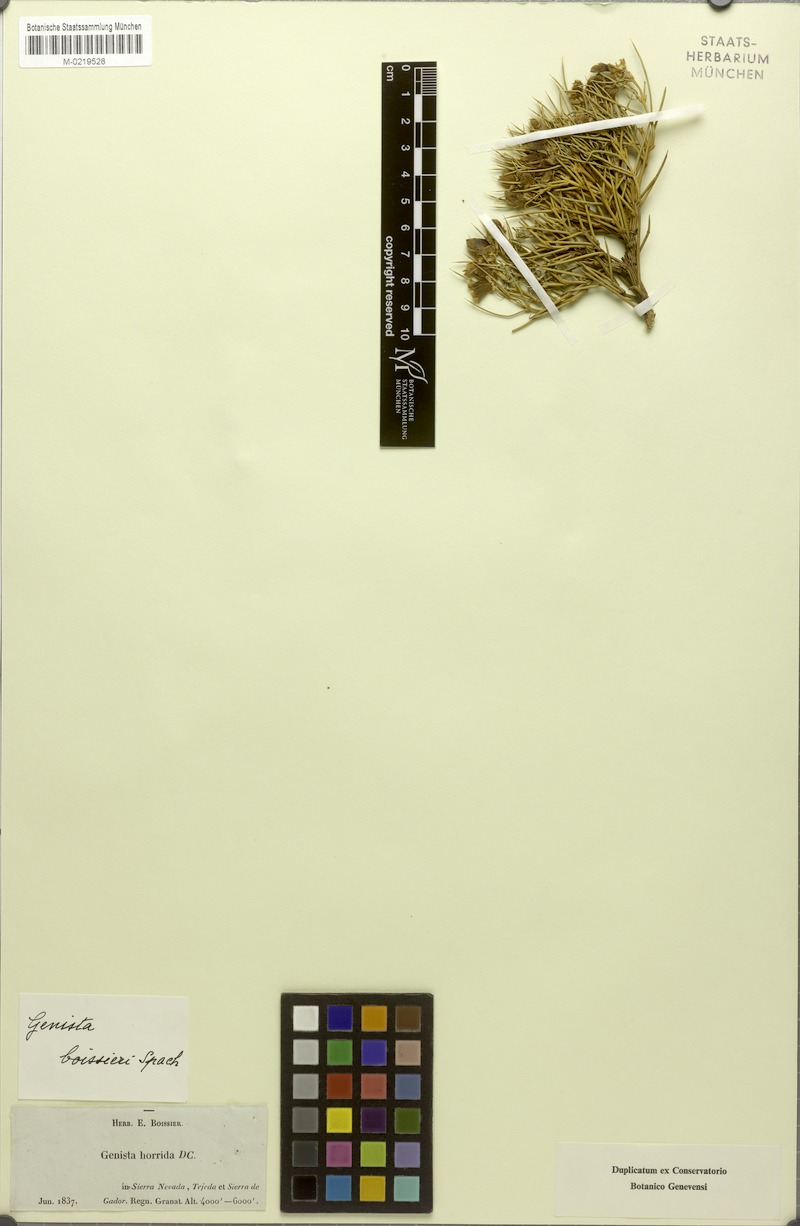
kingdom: Plantae
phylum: Tracheophyta
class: Magnoliopsida
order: Fabales
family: Fabaceae
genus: Echinospartum
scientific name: Echinospartum boissieri
